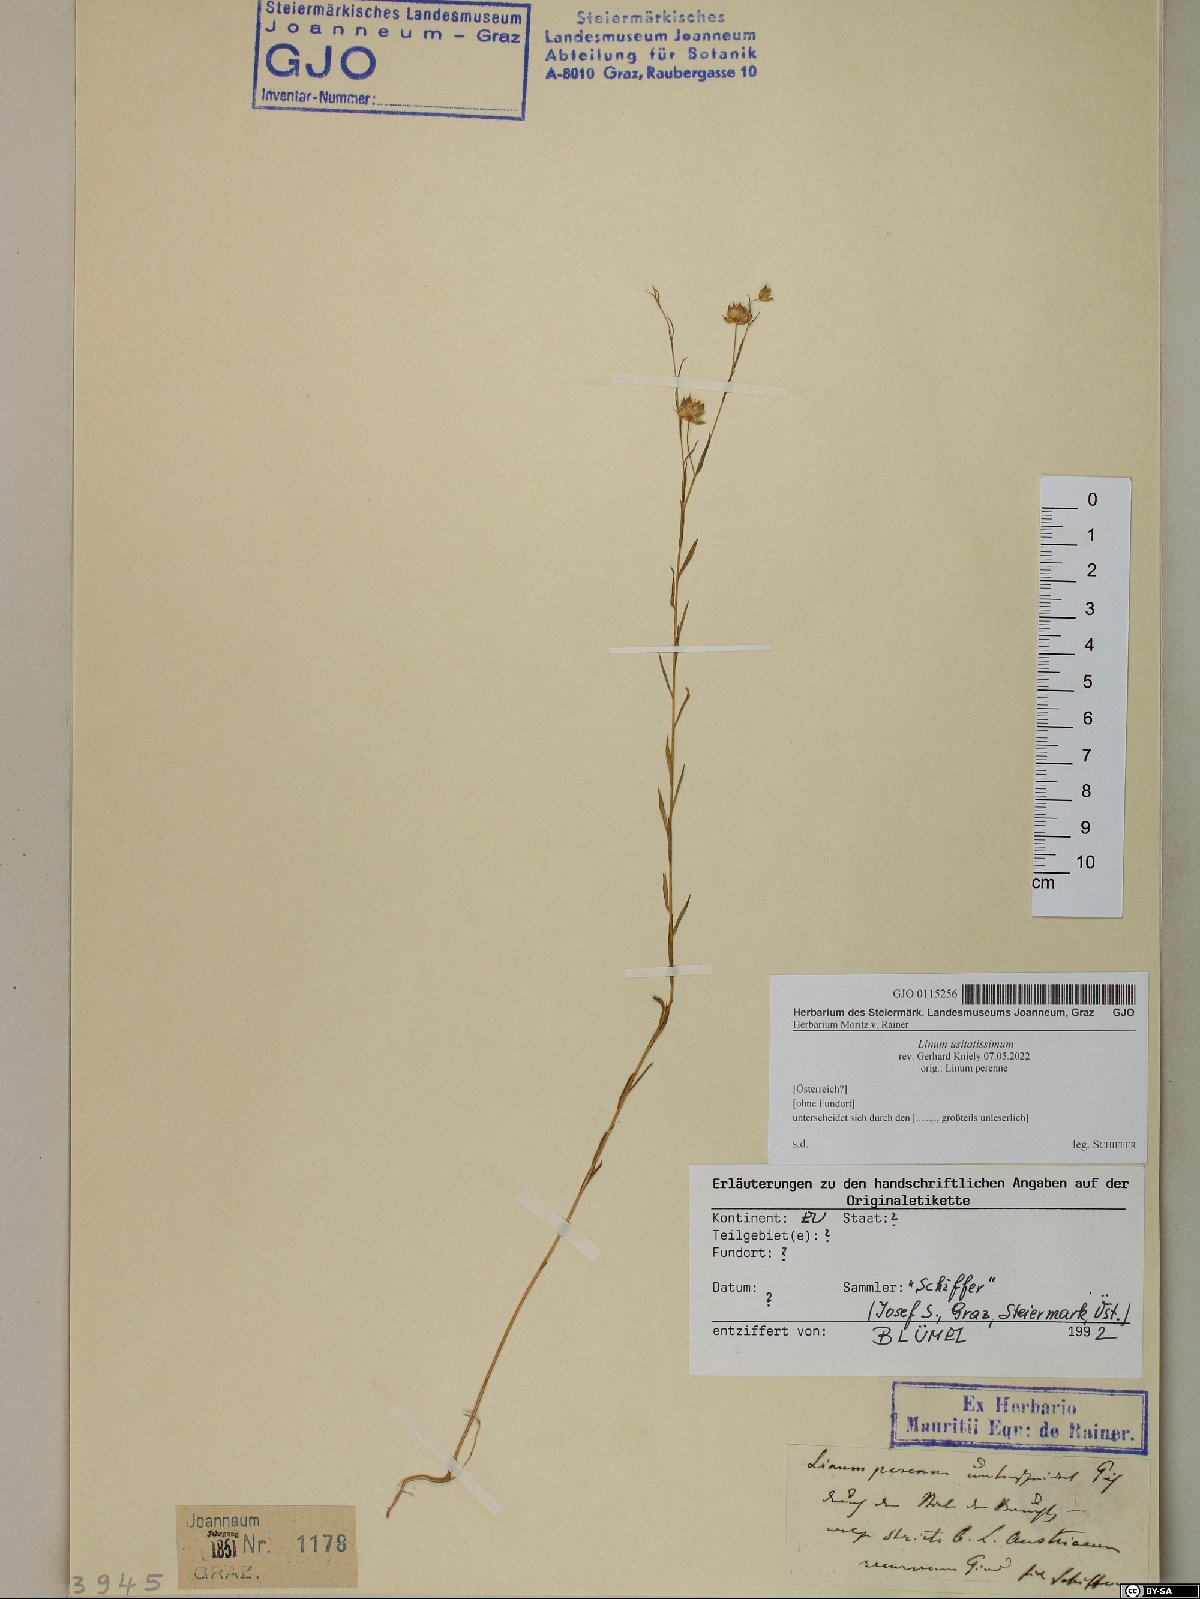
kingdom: Plantae
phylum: Tracheophyta
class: Magnoliopsida
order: Malpighiales
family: Linaceae
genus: Linum
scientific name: Linum usitatissimum
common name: Flax
